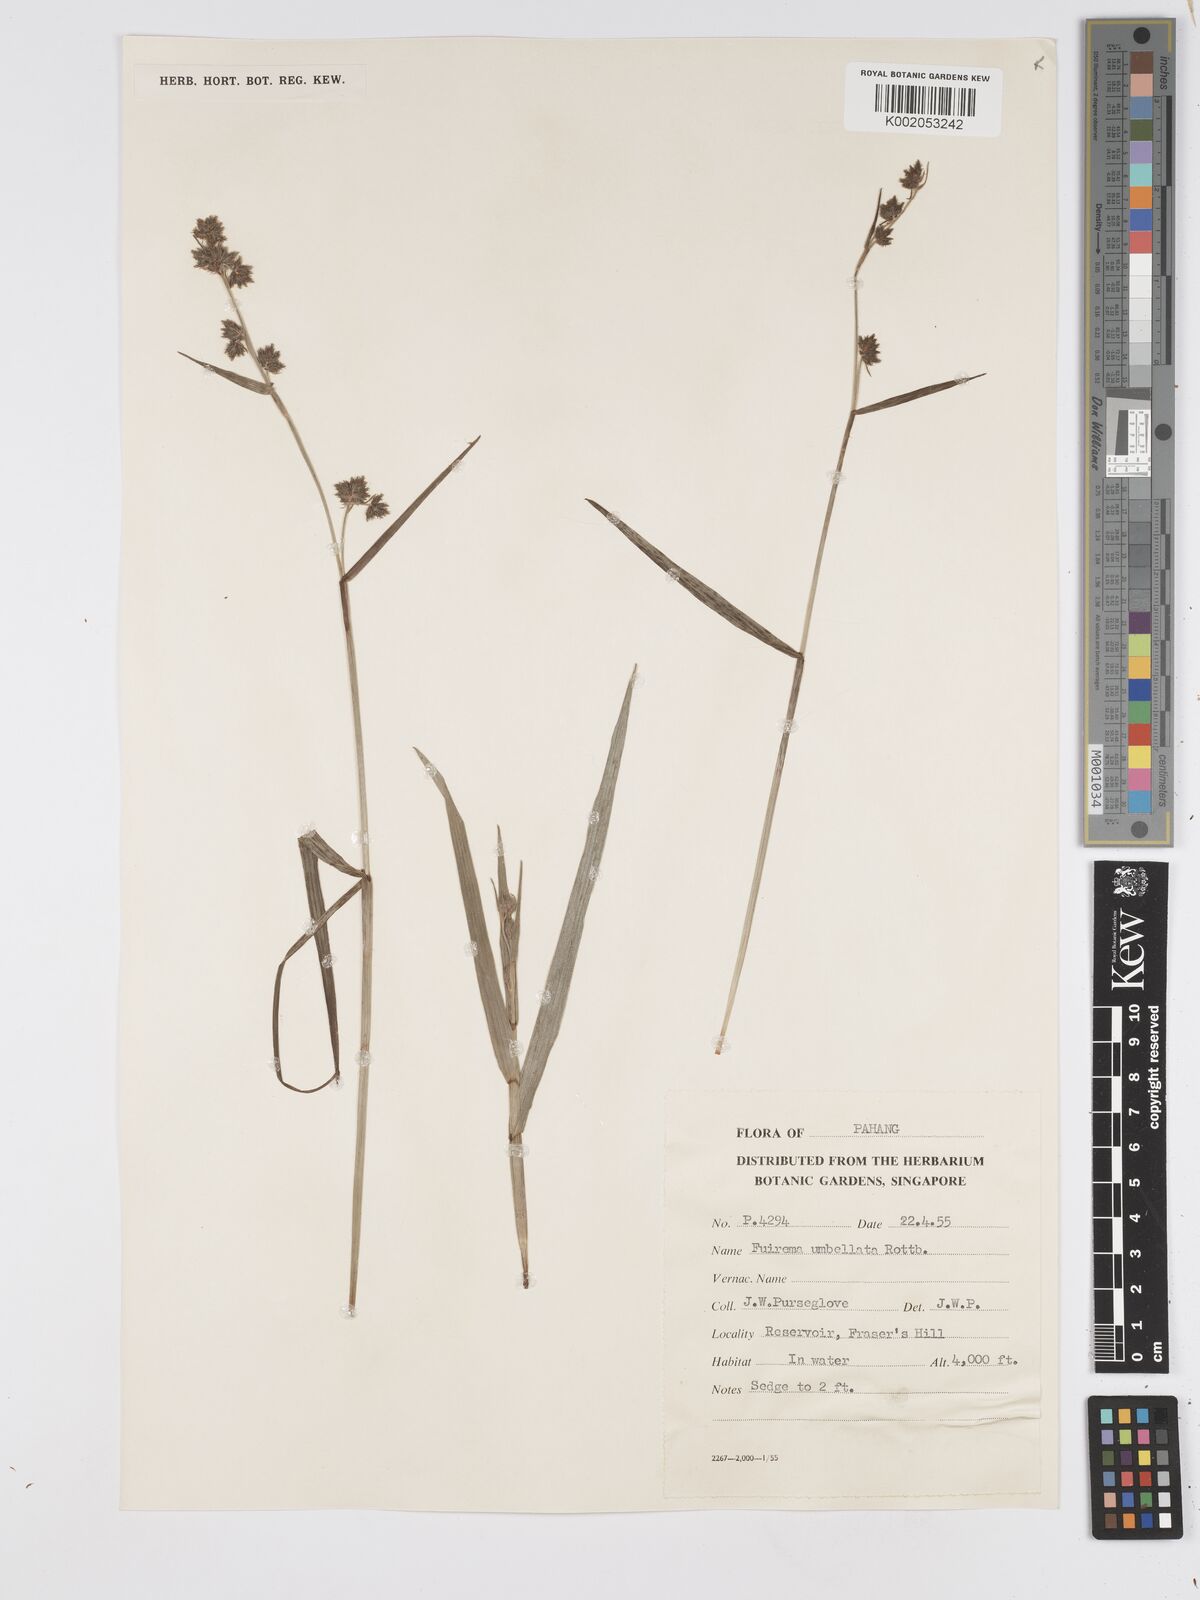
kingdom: Plantae
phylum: Tracheophyta
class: Liliopsida
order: Poales
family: Cyperaceae
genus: Fuirena
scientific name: Fuirena umbellata
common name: Yefen
